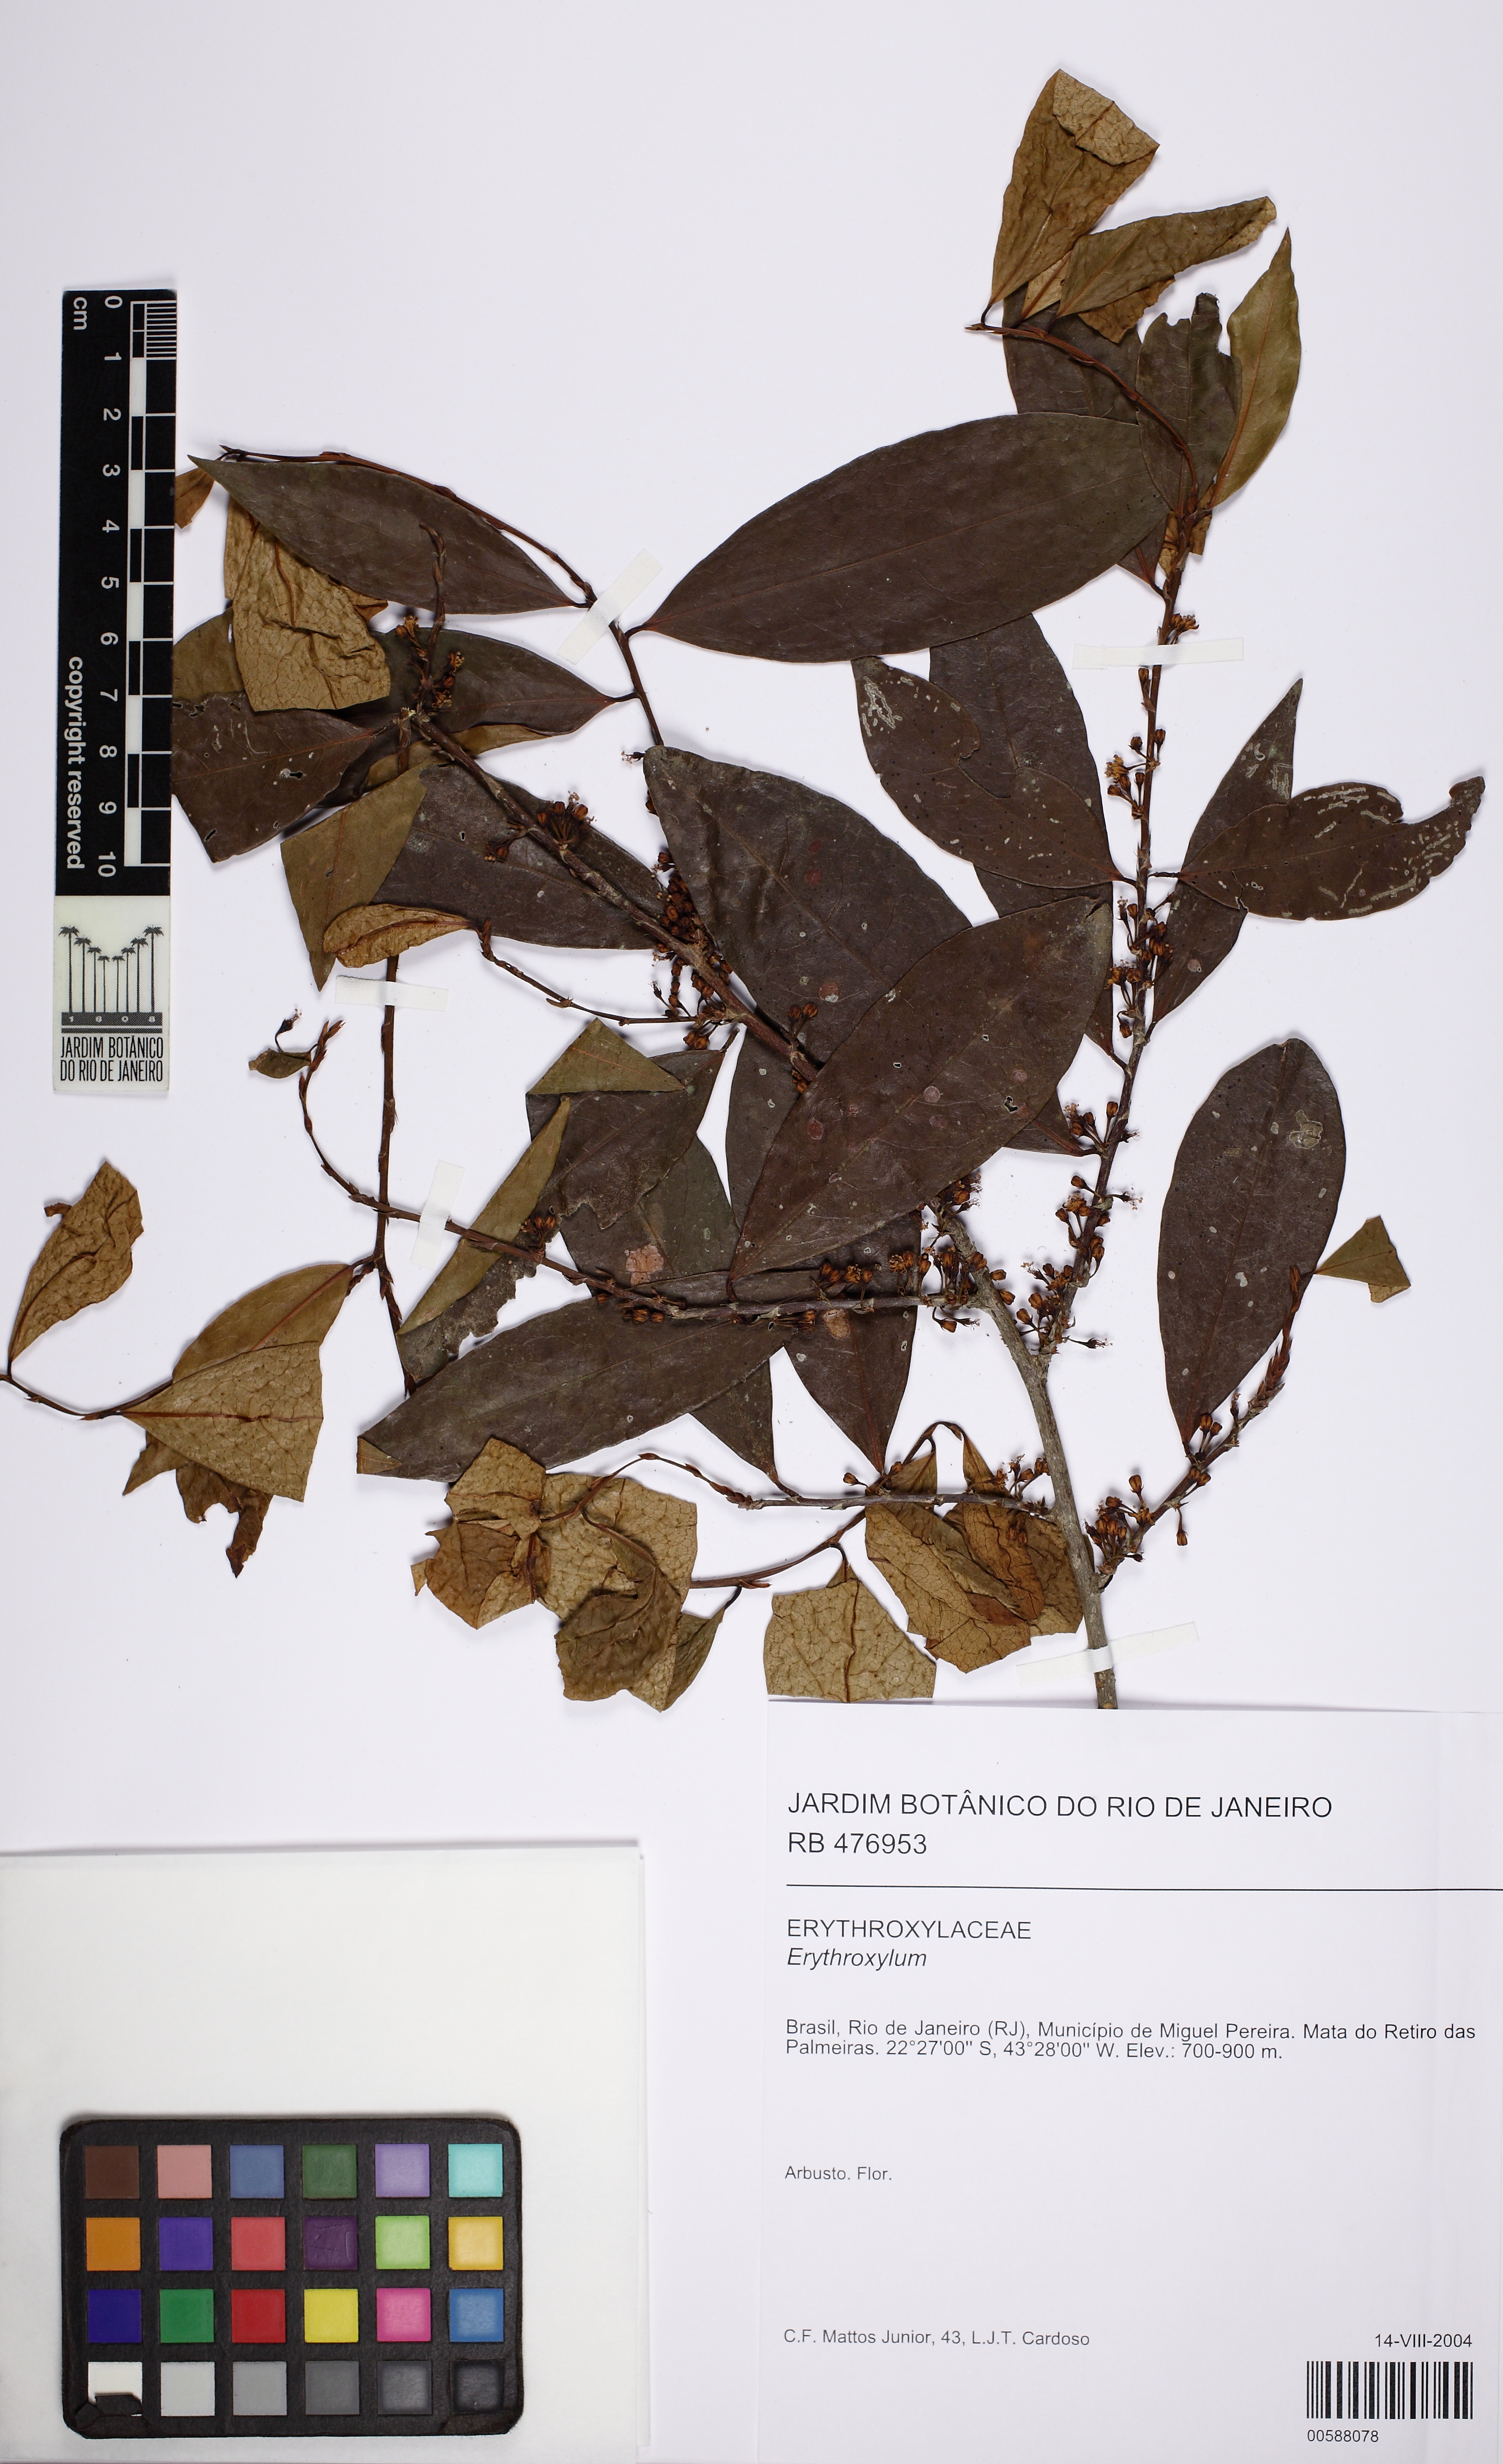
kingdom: Plantae
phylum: Tracheophyta
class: Magnoliopsida
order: Malpighiales
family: Erythroxylaceae
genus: Erythroxylum
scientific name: Erythroxylum citrifolium
